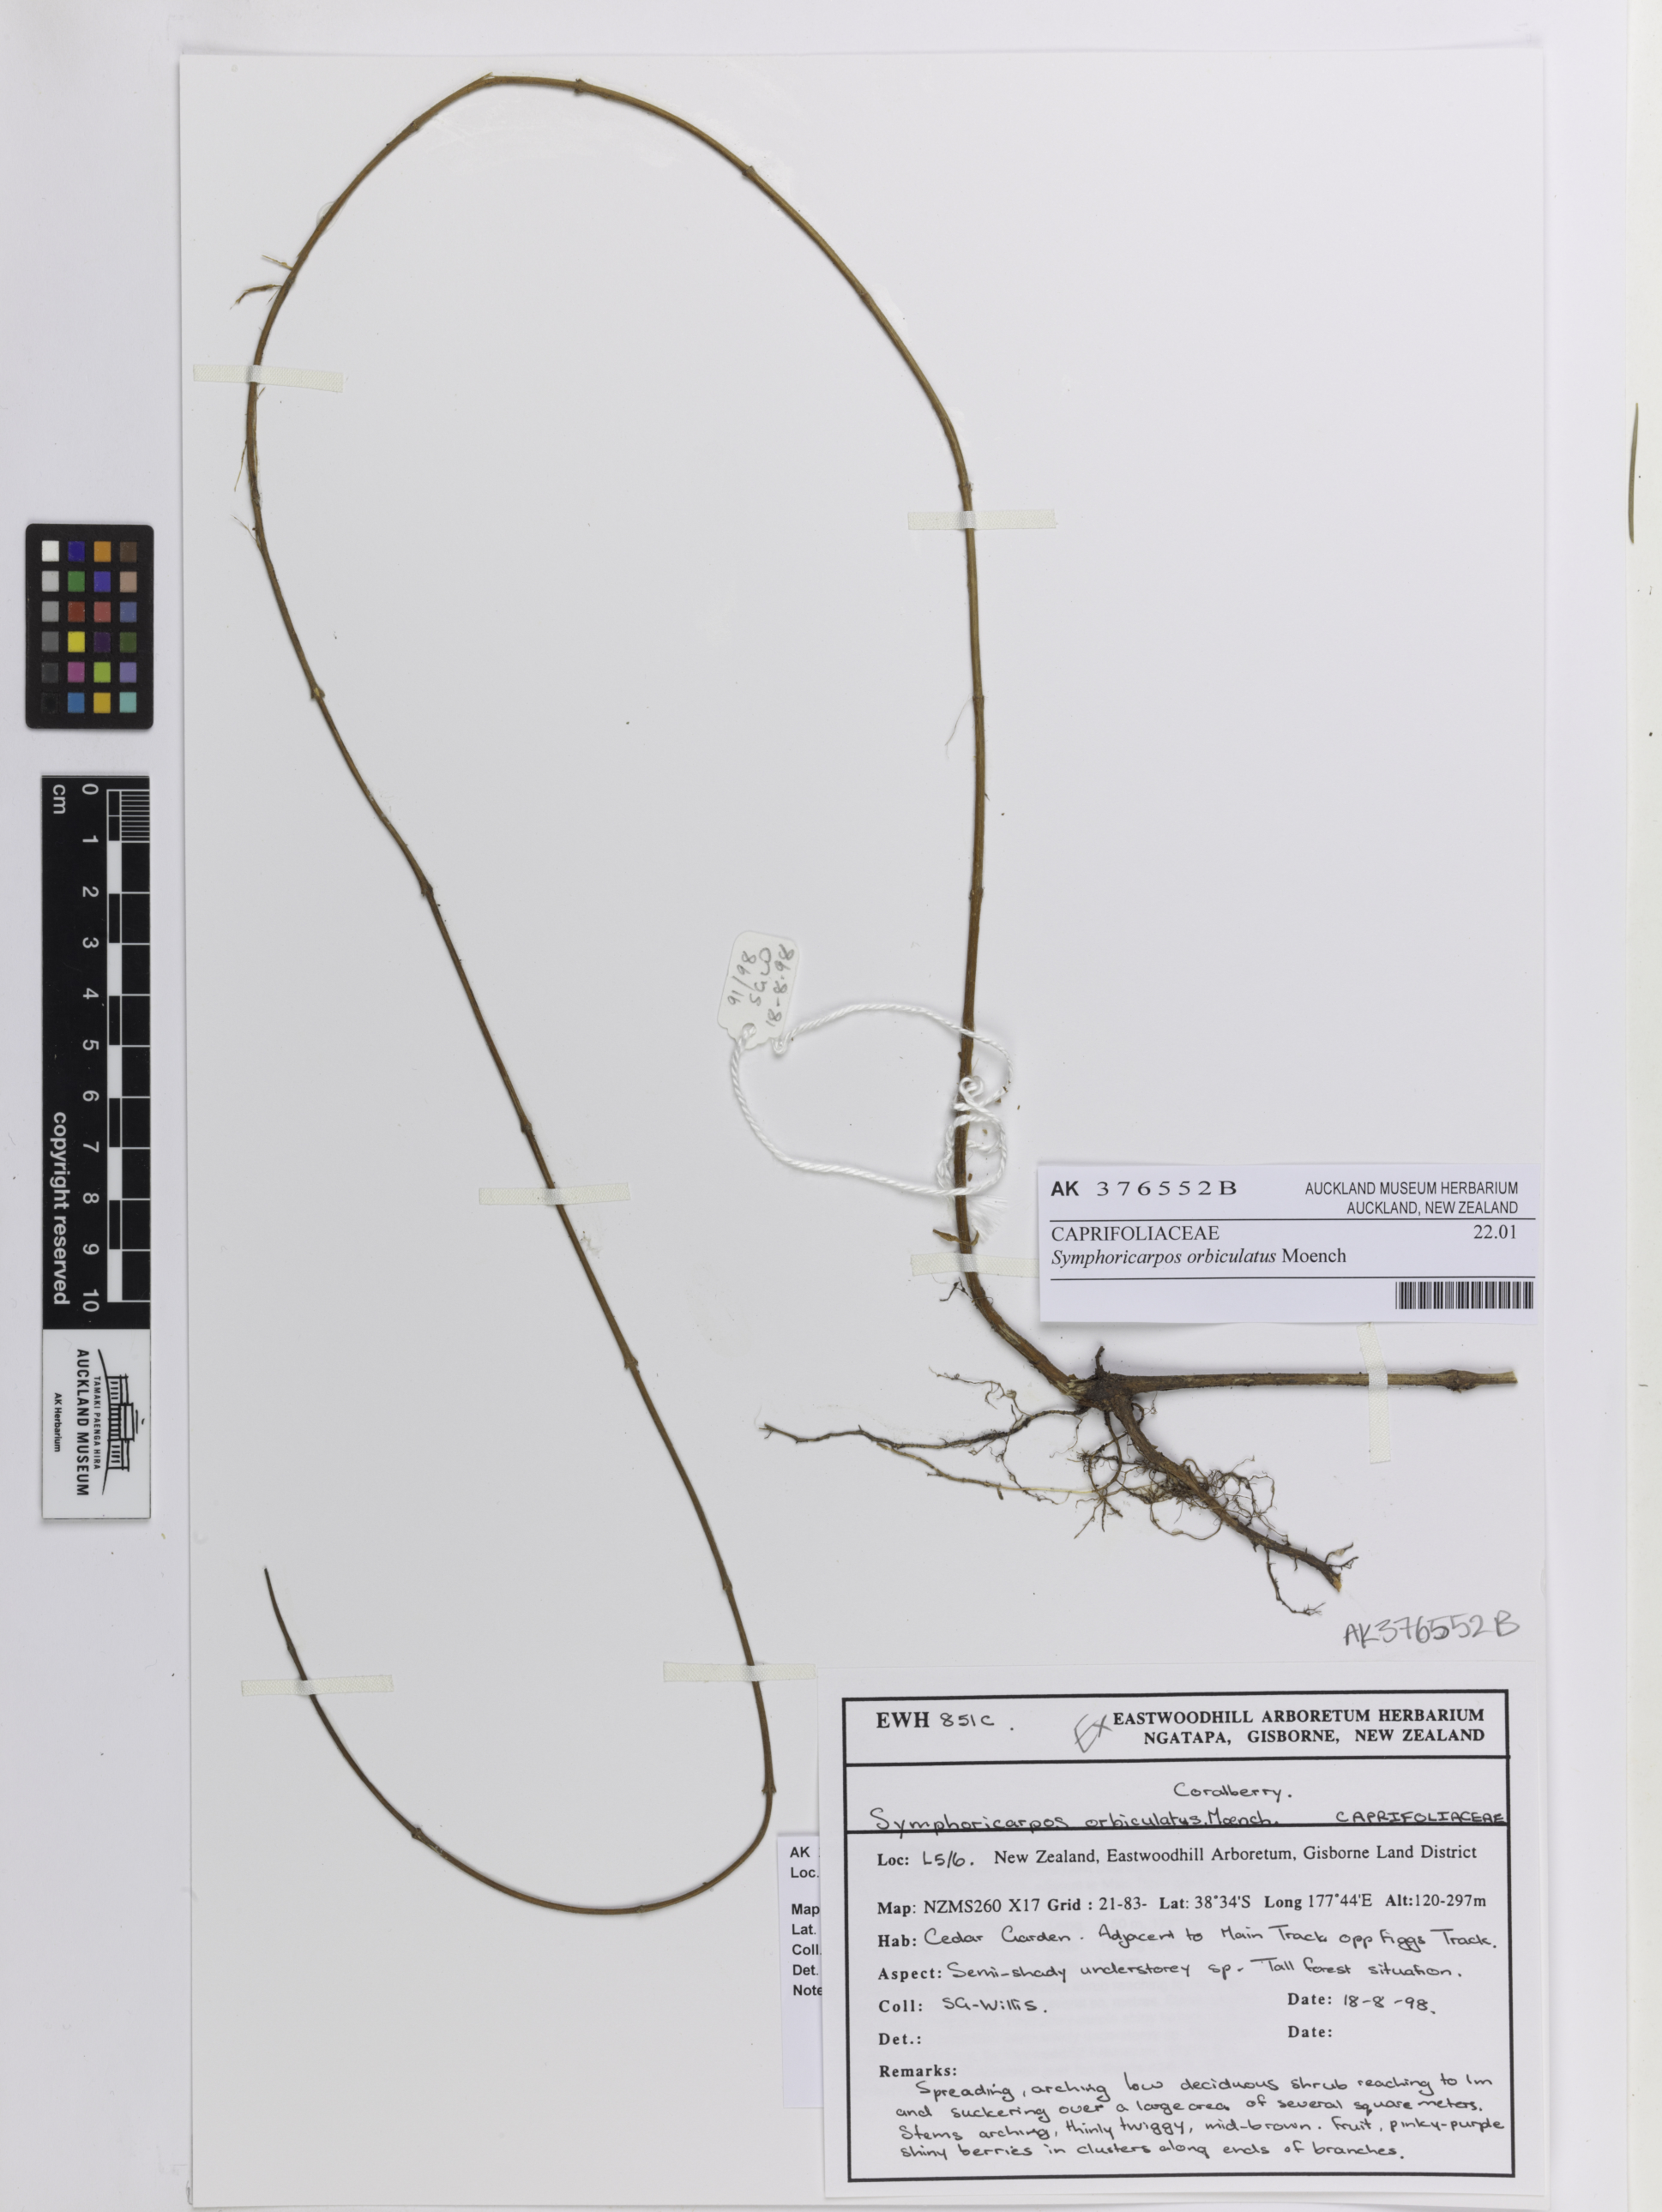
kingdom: Plantae
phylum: Tracheophyta
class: Magnoliopsida
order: Dipsacales
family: Caprifoliaceae
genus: Symphoricarpos
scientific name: Symphoricarpos orbiculatus
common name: Coralberry
